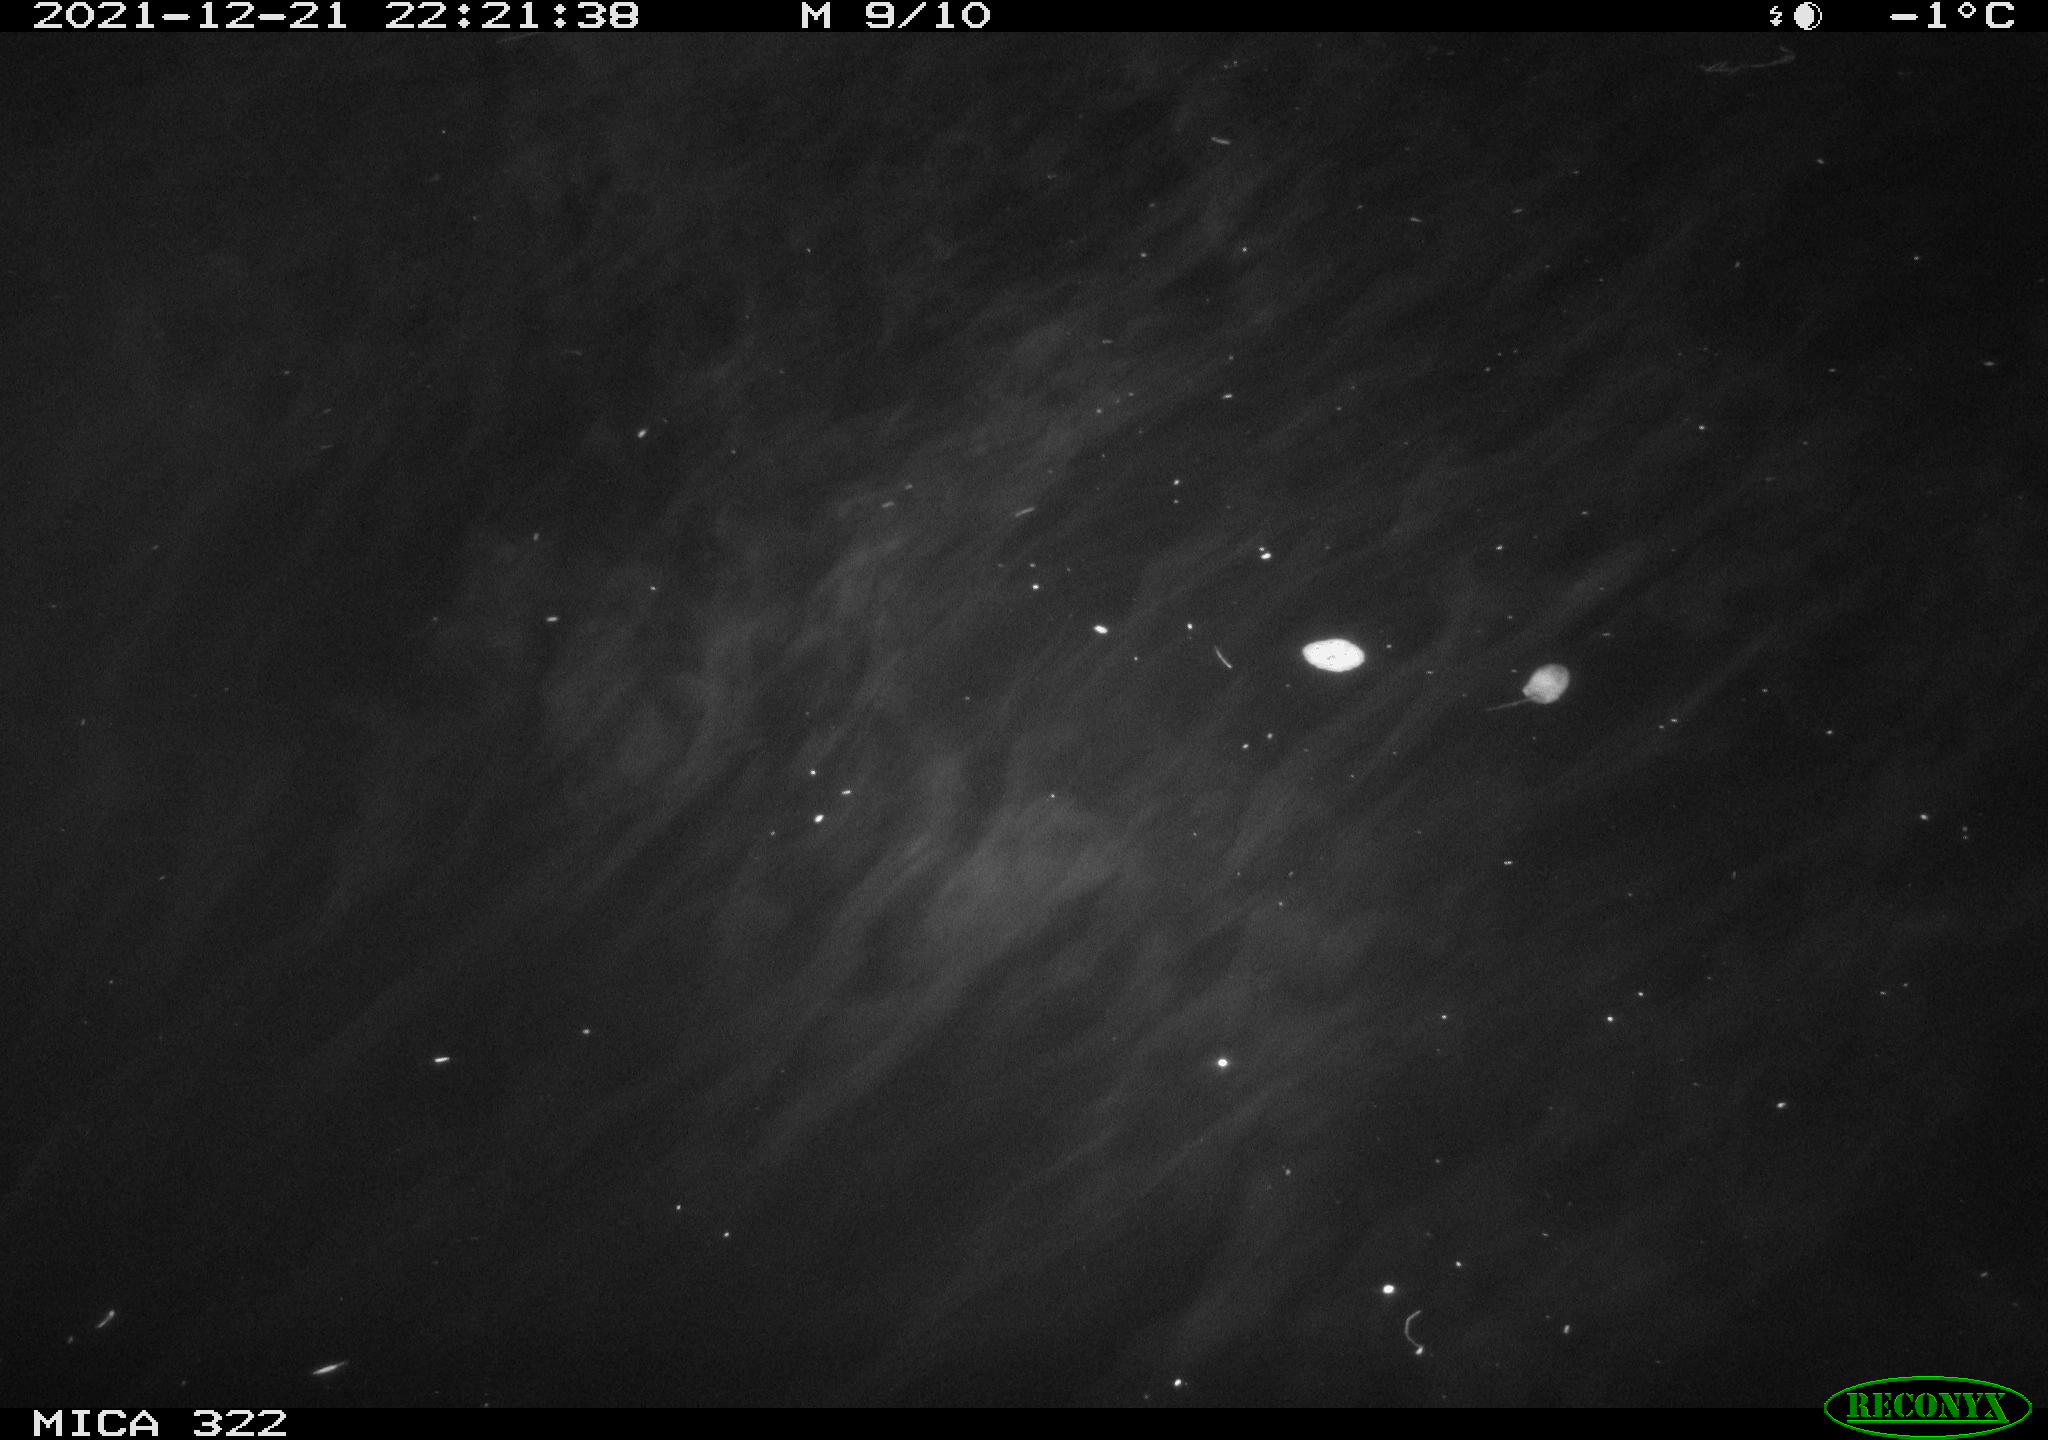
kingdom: Animalia
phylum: Chordata
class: Aves
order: Anseriformes
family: Anatidae
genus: Anas
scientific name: Anas
